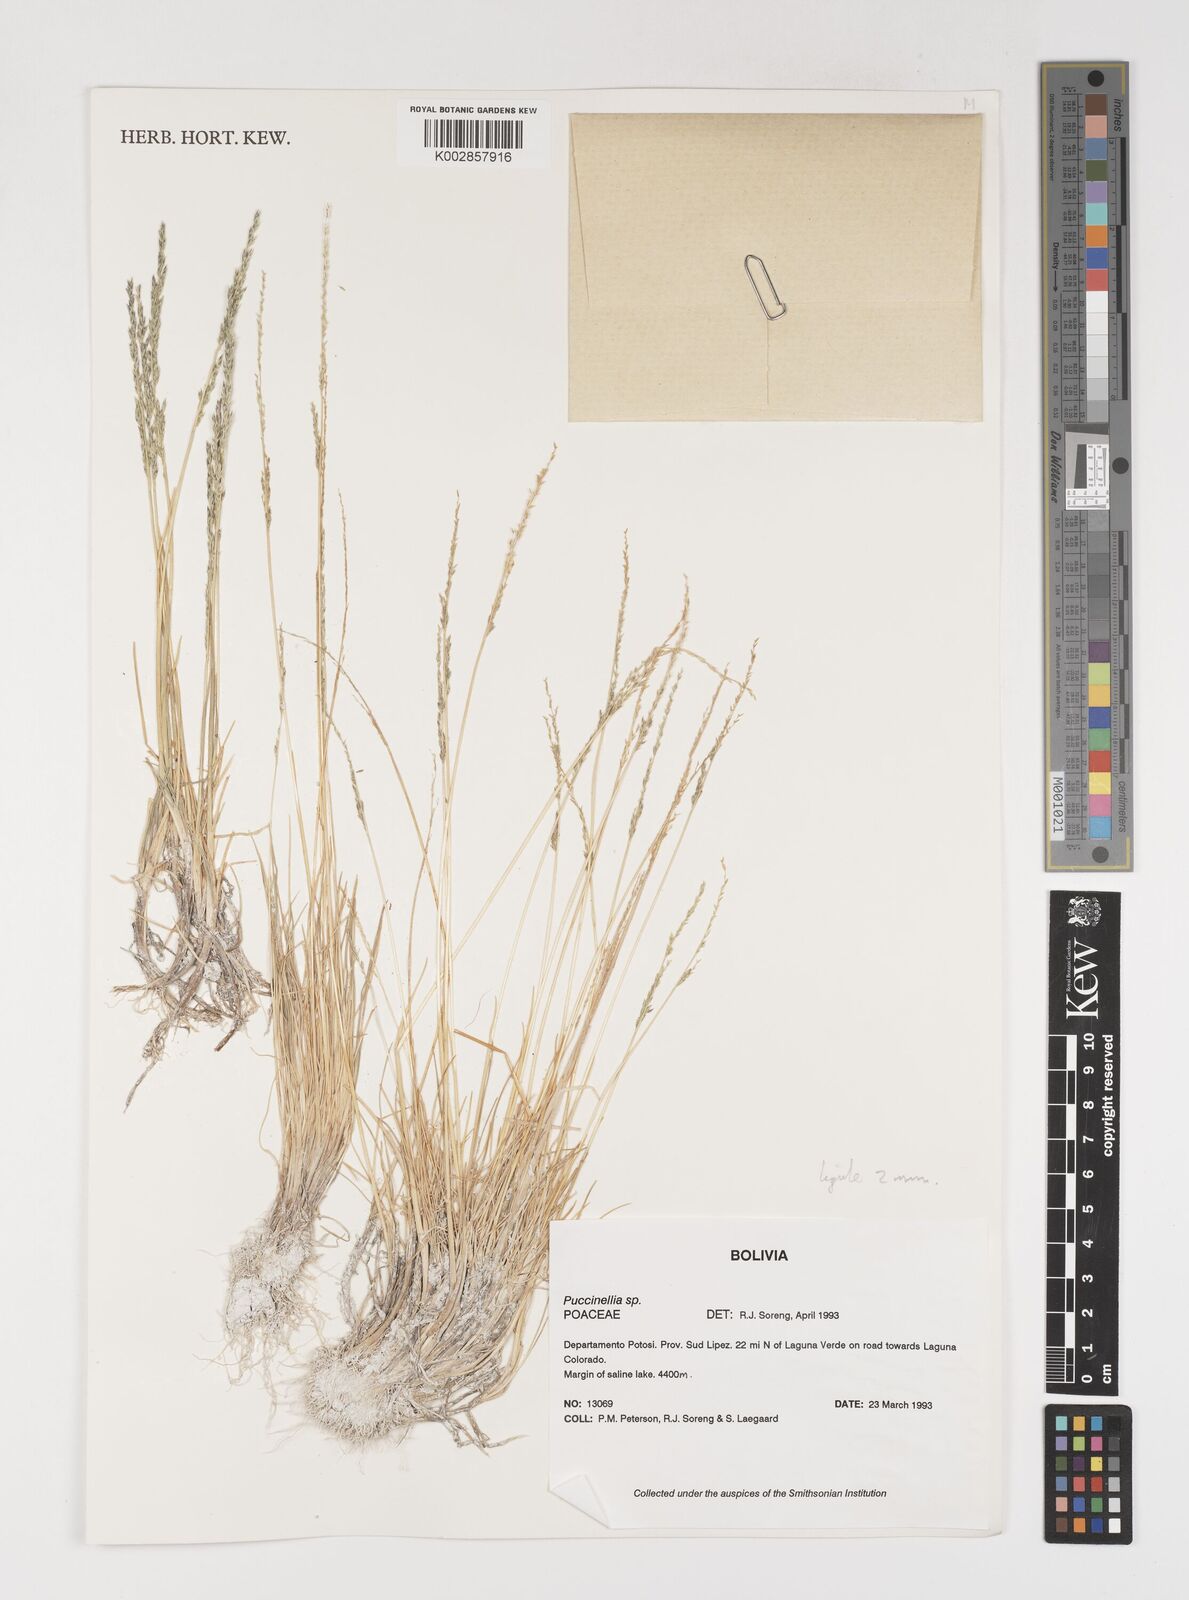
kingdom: Plantae
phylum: Tracheophyta
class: Liliopsida
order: Poales
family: Poaceae
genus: Puccinellia
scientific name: Puccinellia argentinensis
